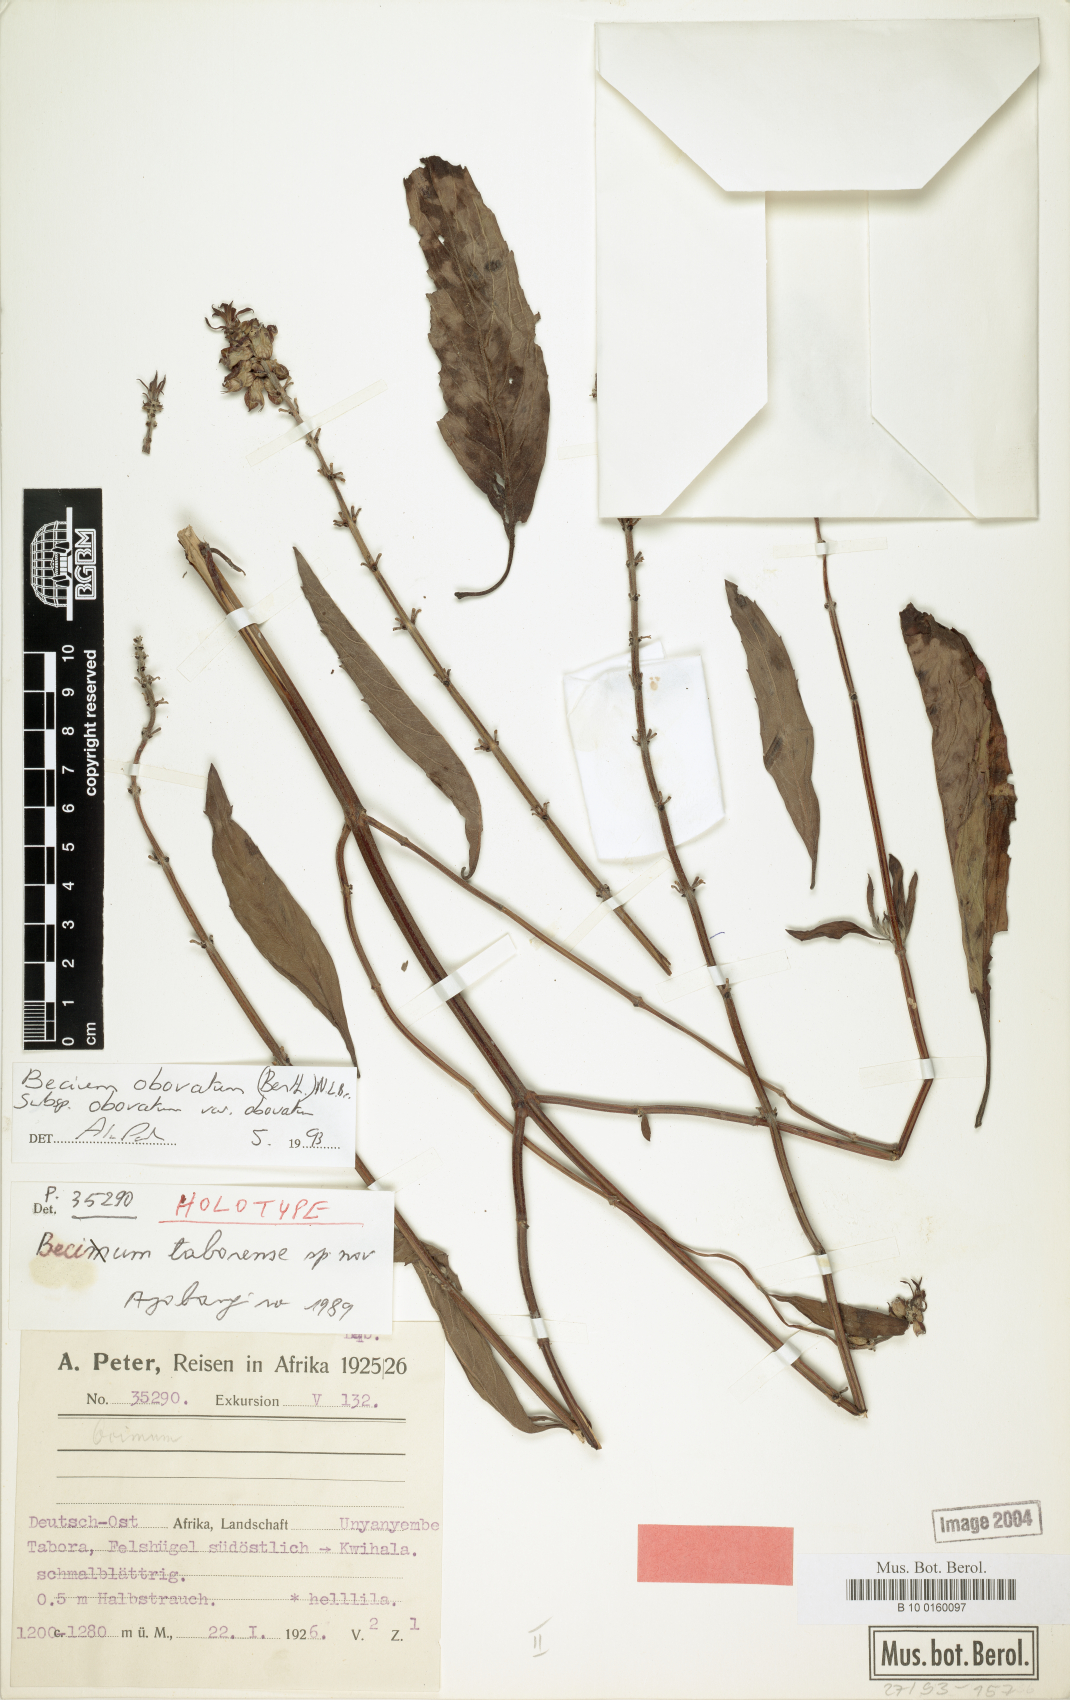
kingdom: Plantae
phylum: Tracheophyta
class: Magnoliopsida
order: Lamiales
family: Lamiaceae
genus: Ocimum
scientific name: Ocimum obovatum
